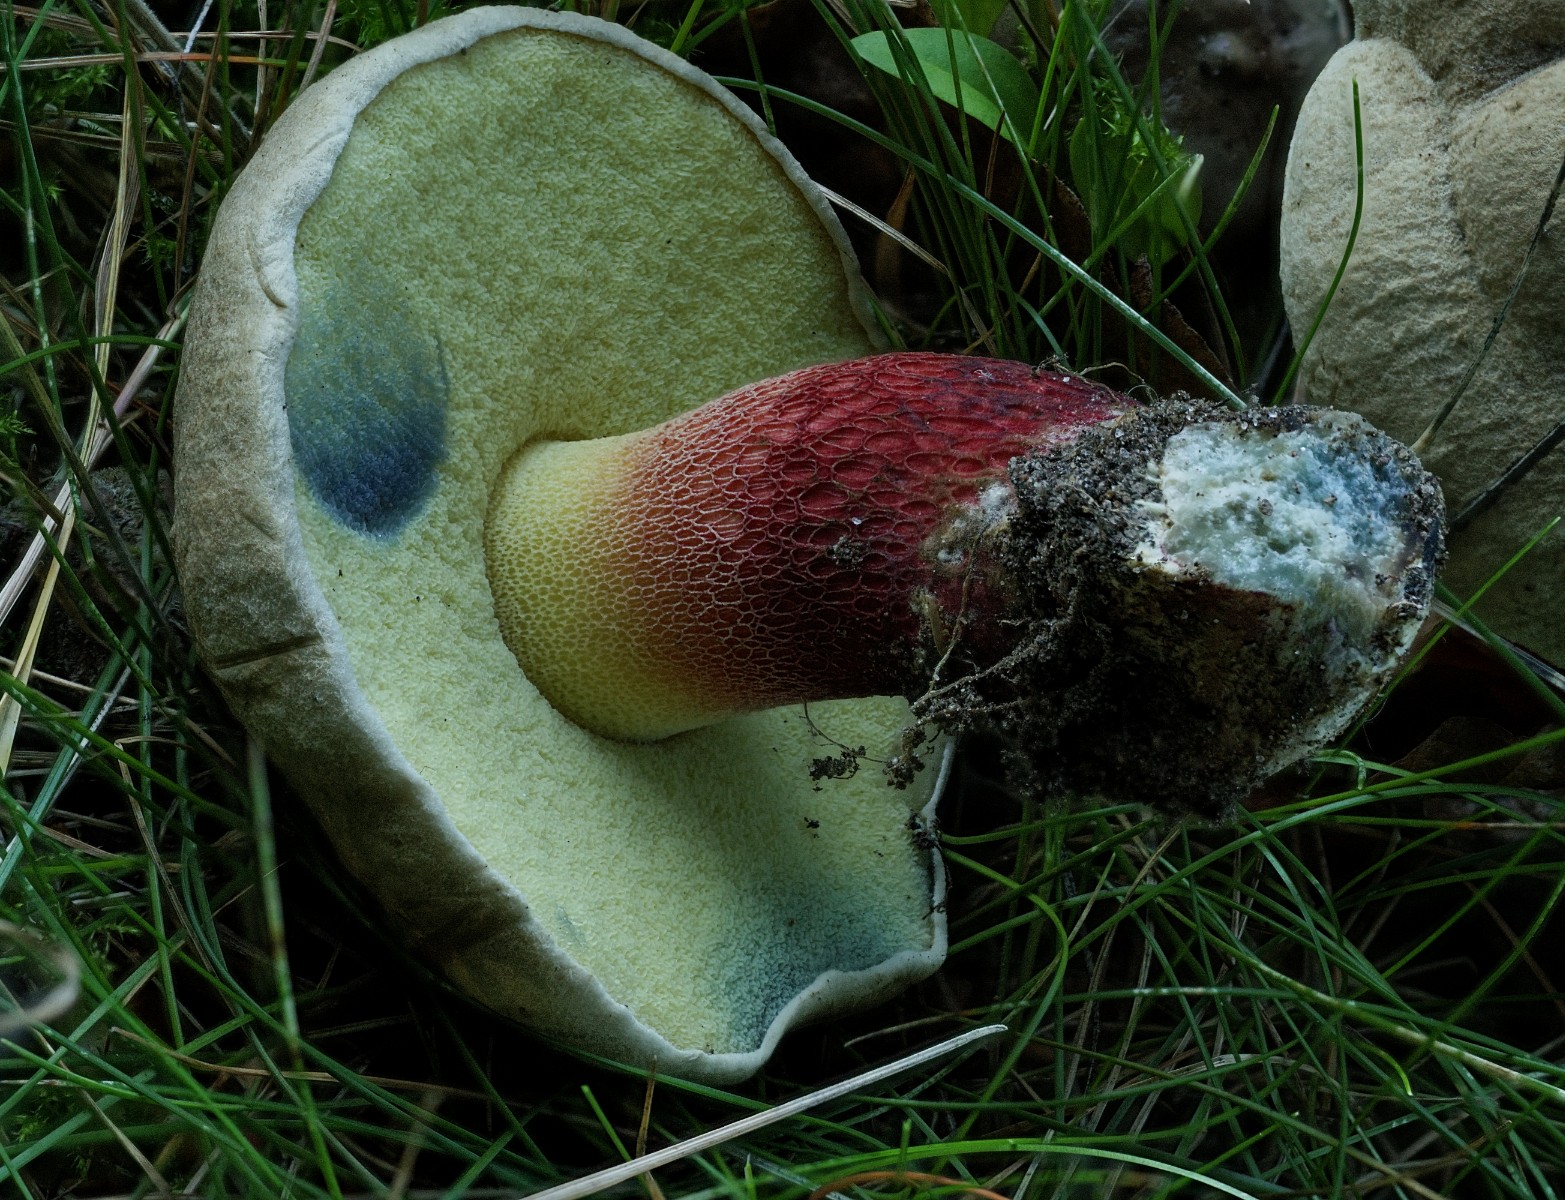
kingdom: Fungi
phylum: Basidiomycota
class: Agaricomycetes
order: Boletales
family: Boletaceae
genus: Caloboletus
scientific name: Caloboletus calopus
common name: skønfodet rørhat
